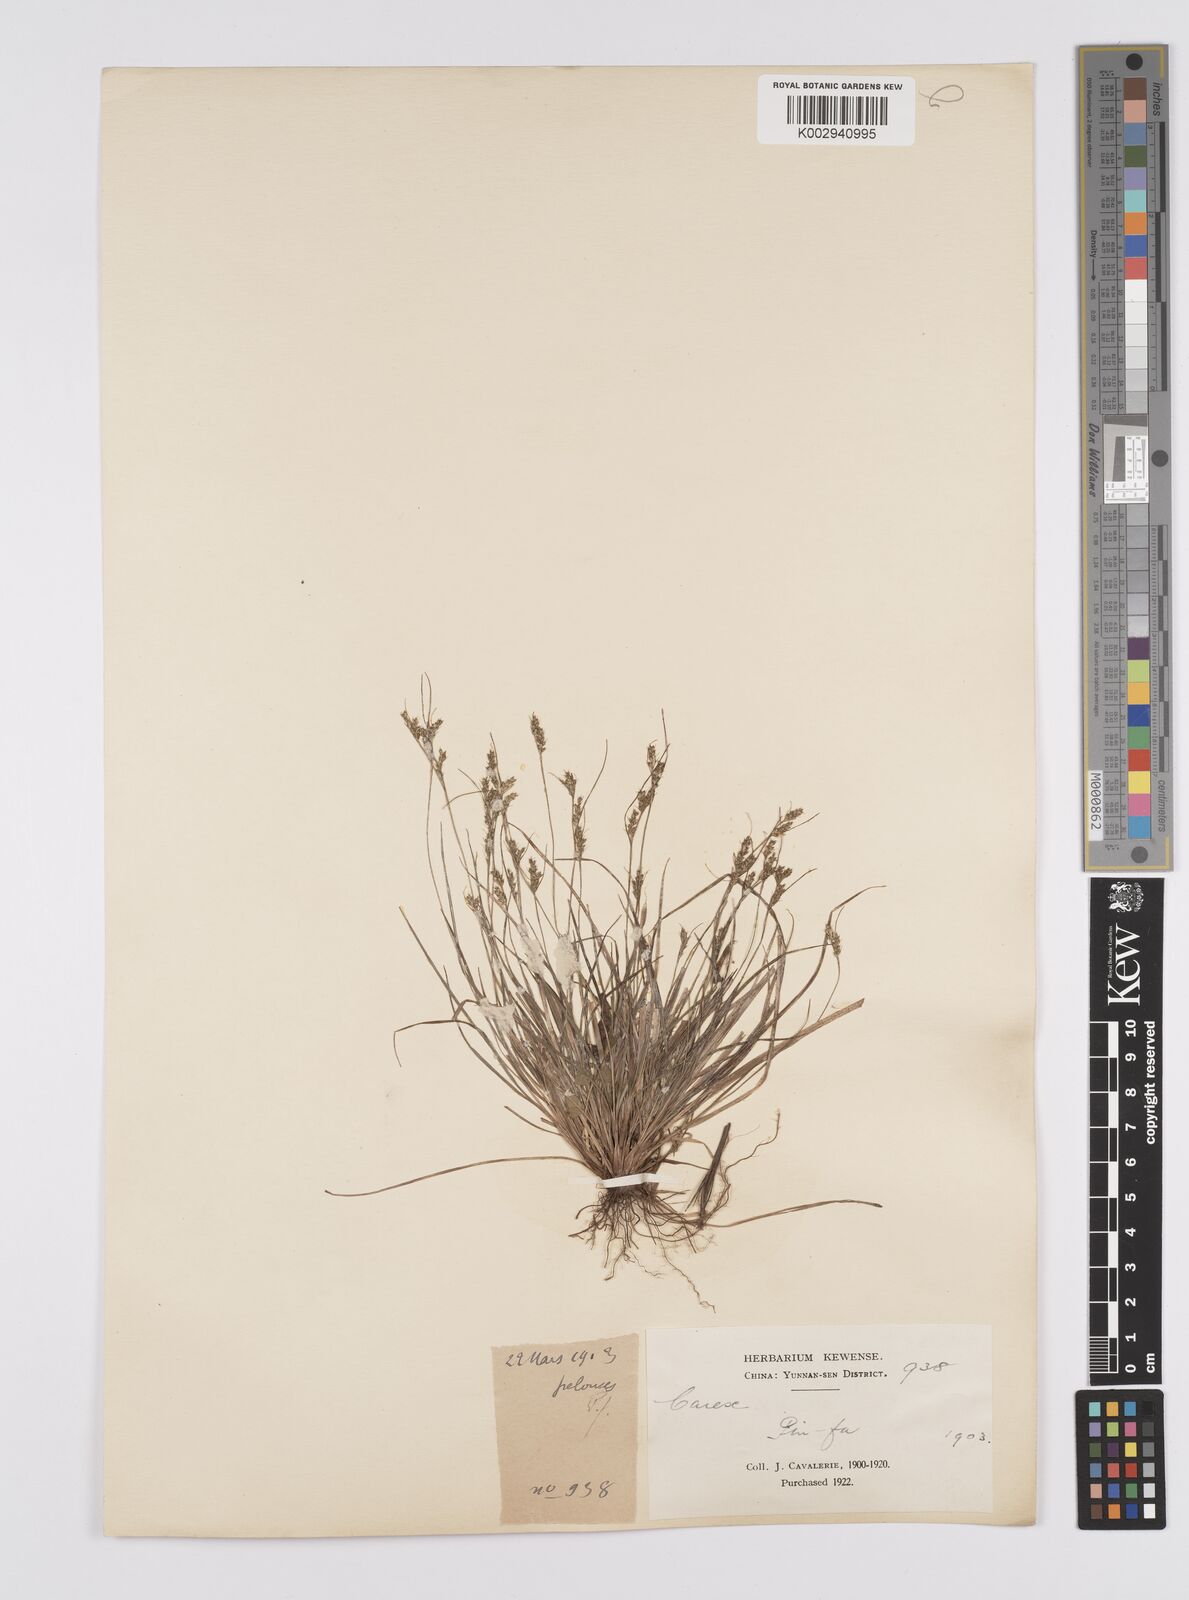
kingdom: Plantae
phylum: Tracheophyta
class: Liliopsida
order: Poales
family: Cyperaceae
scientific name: Cyperaceae
